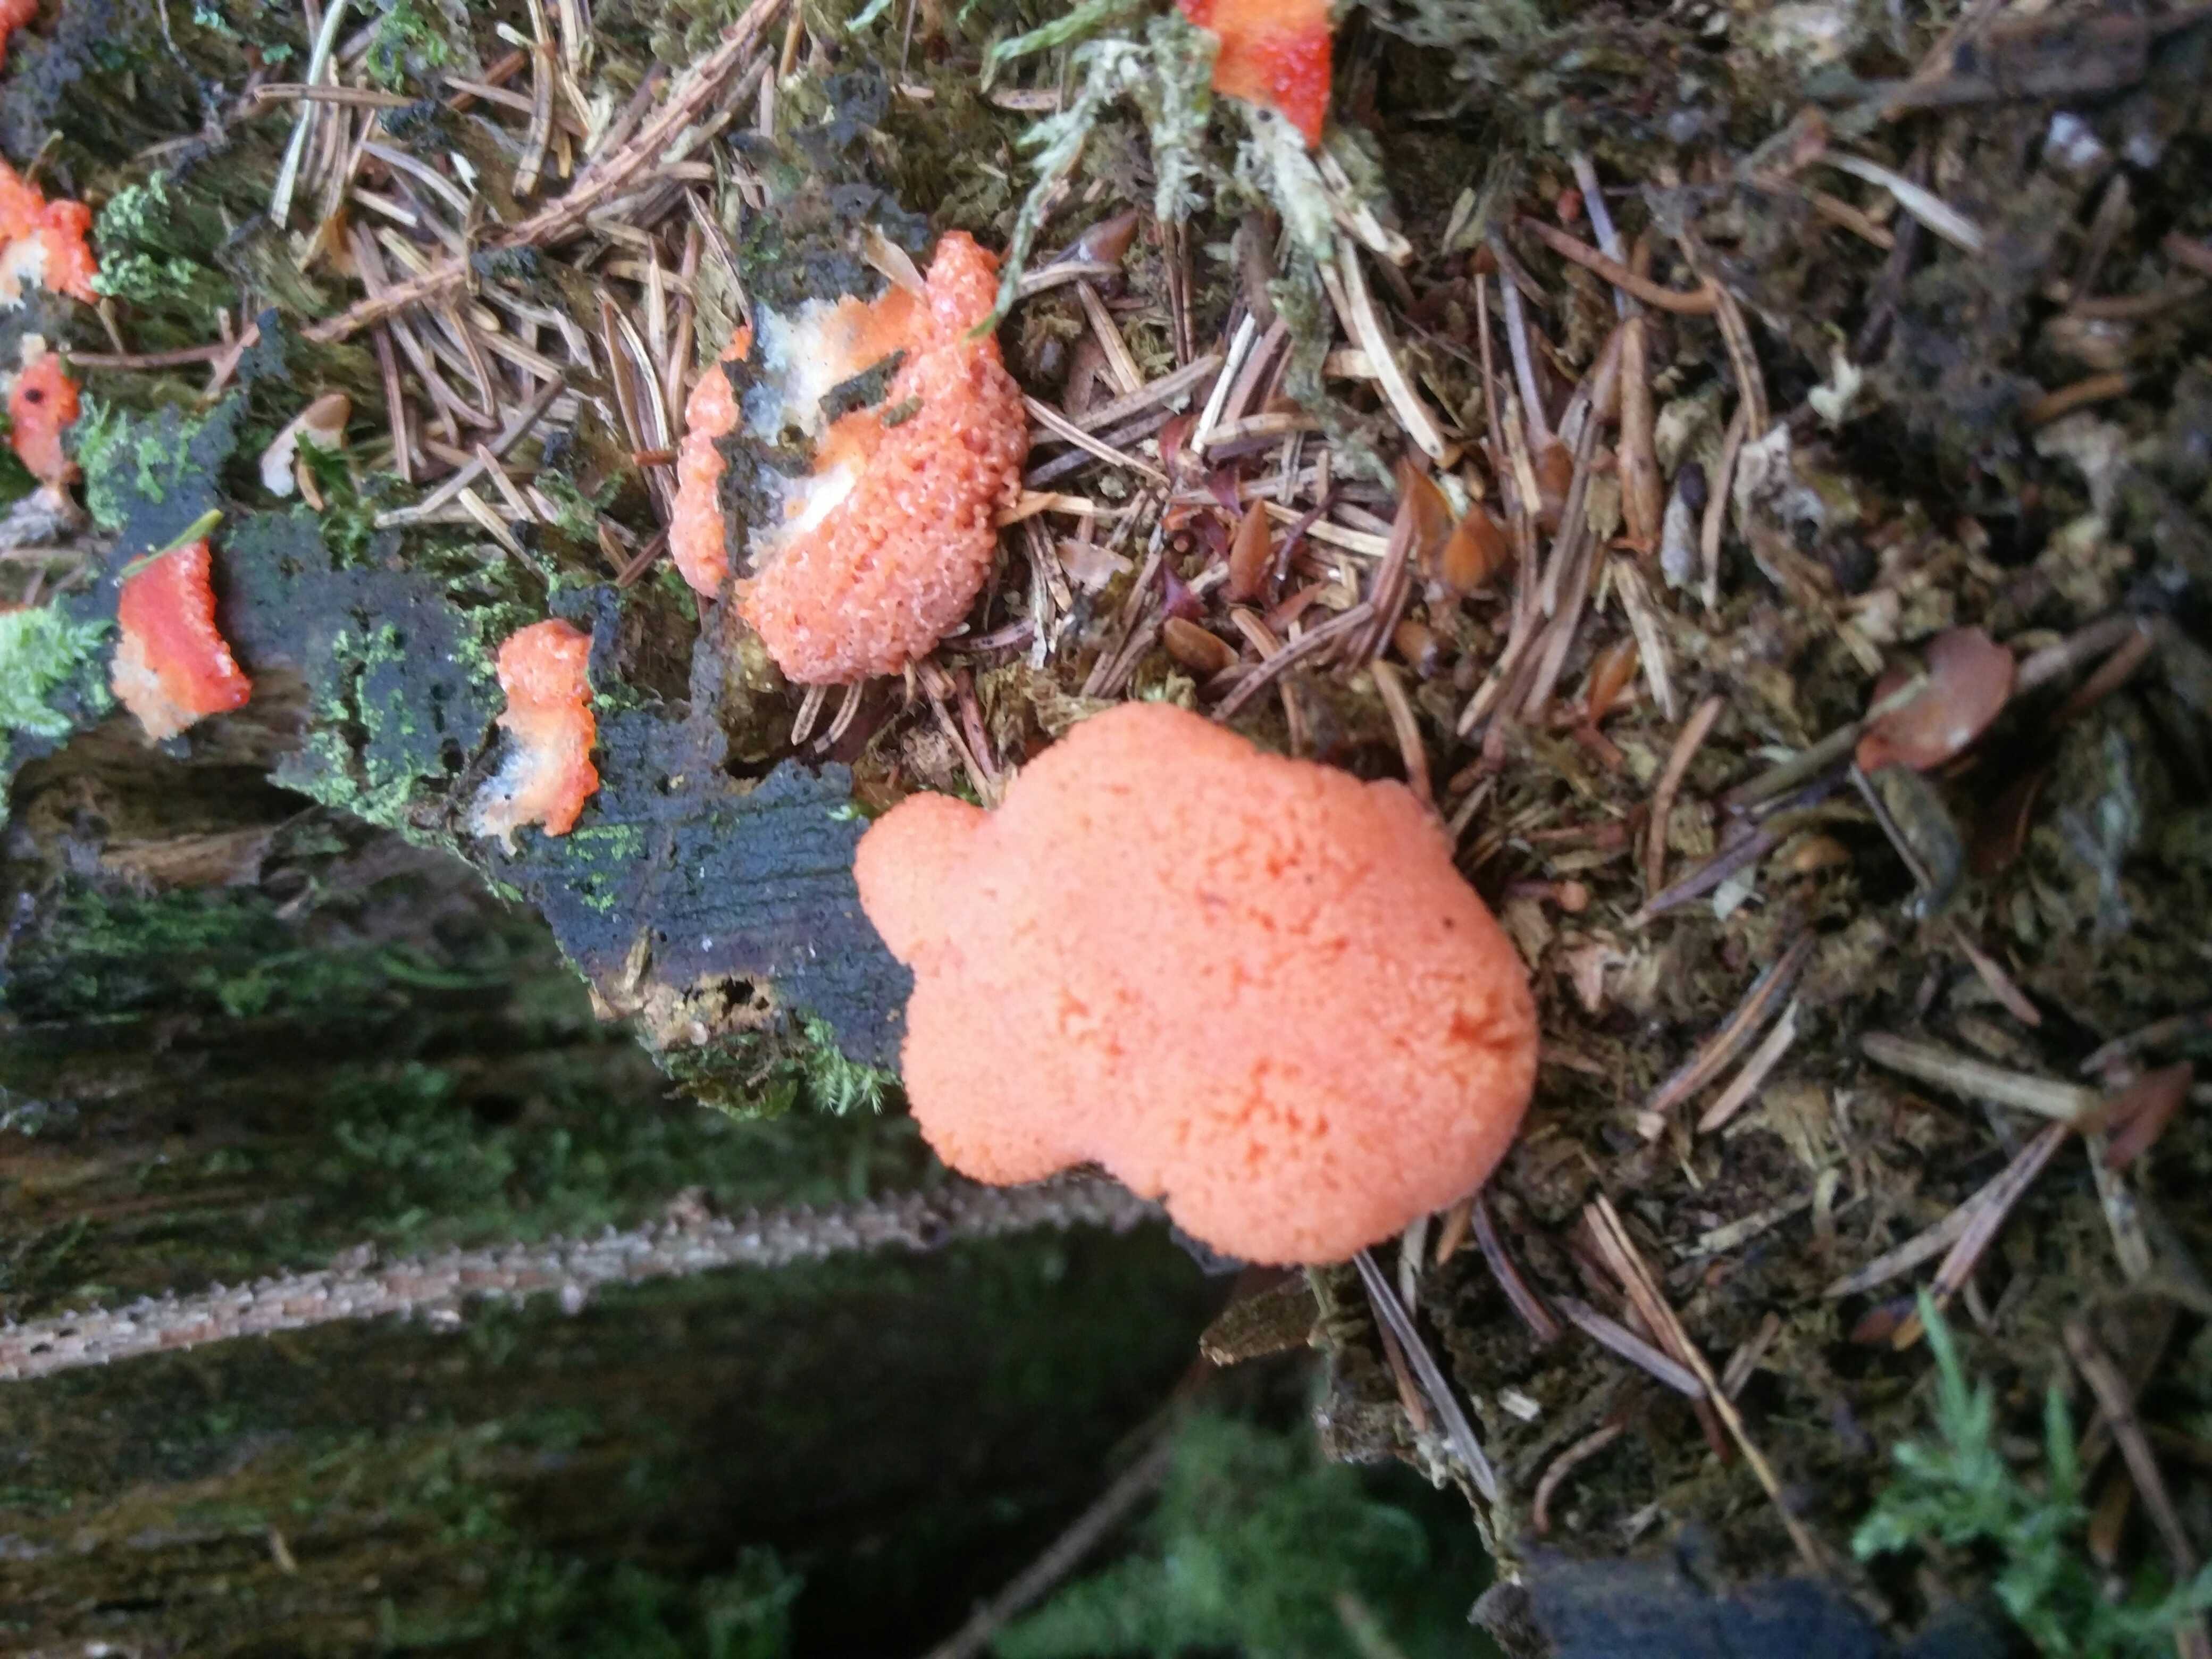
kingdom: Protozoa
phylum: Mycetozoa
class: Myxomycetes
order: Cribrariales
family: Tubiferaceae
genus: Tubifera
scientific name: Tubifera ferruginosa
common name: kanel-støvrør
